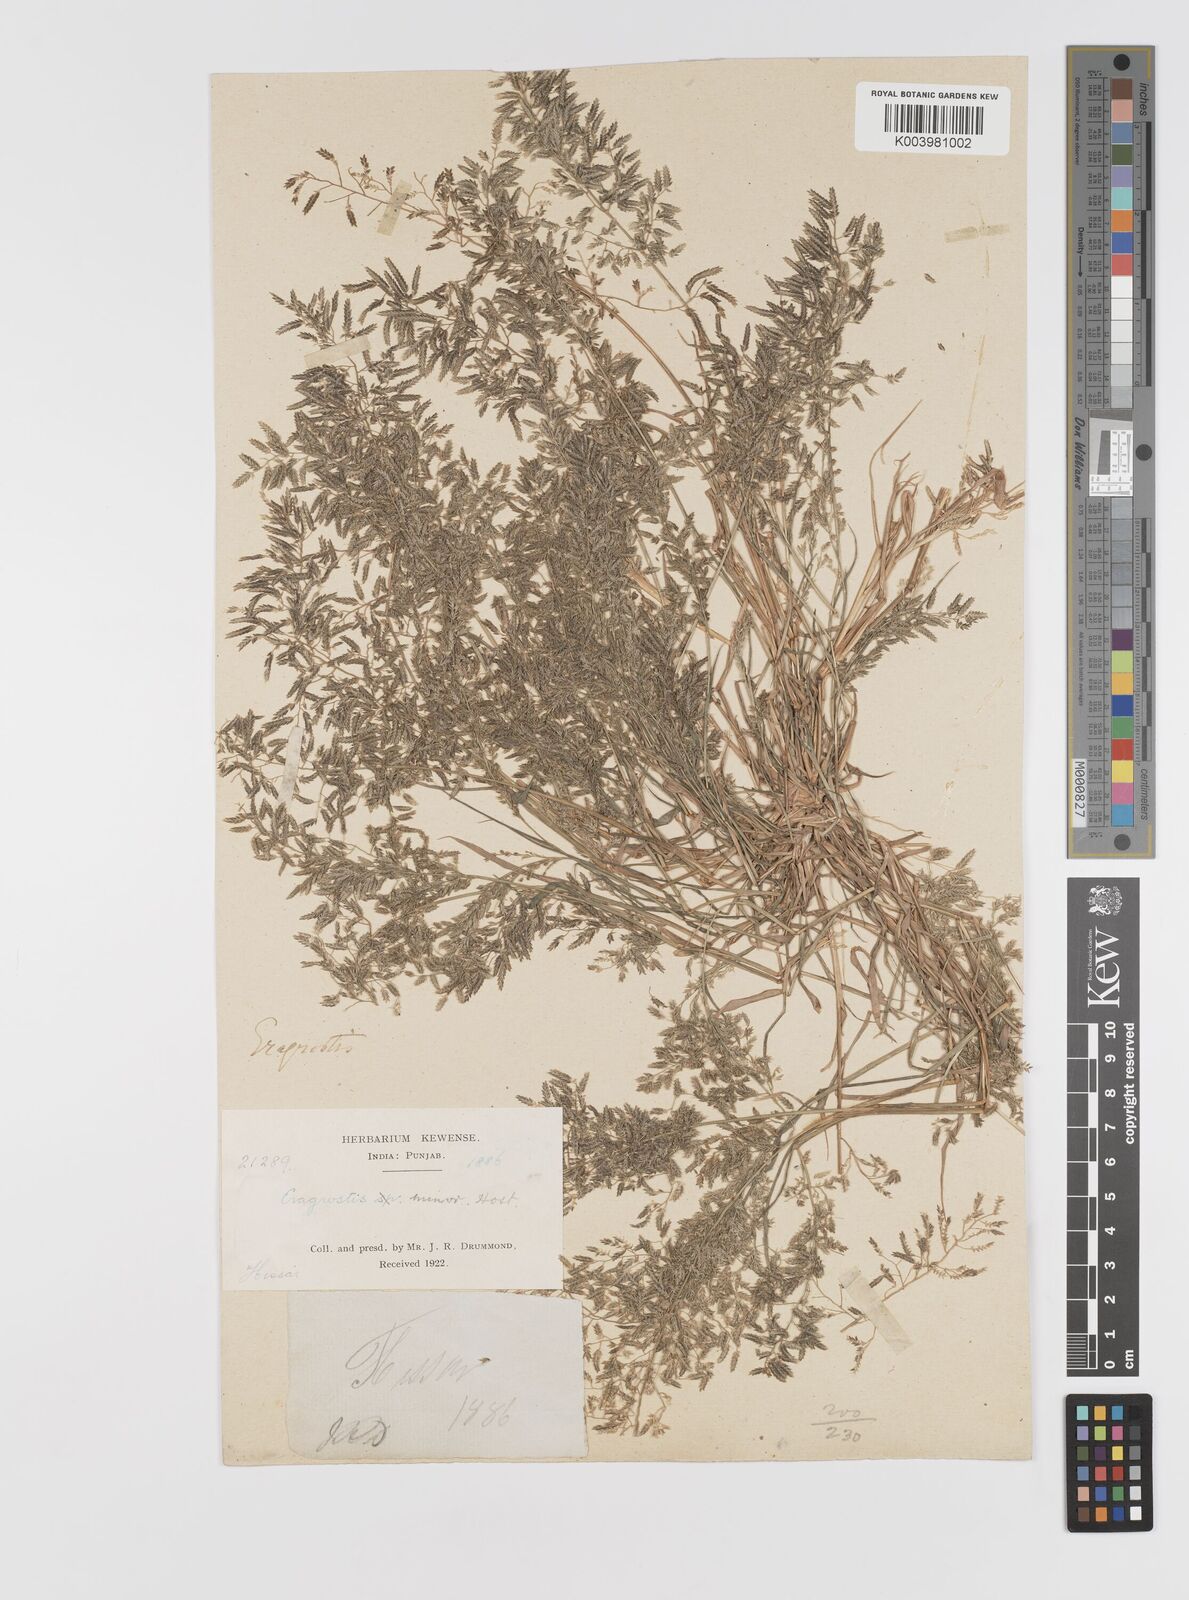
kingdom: Plantae
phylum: Tracheophyta
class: Liliopsida
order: Poales
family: Poaceae
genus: Eragrostis
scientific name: Eragrostis minor
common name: Small love-grass
